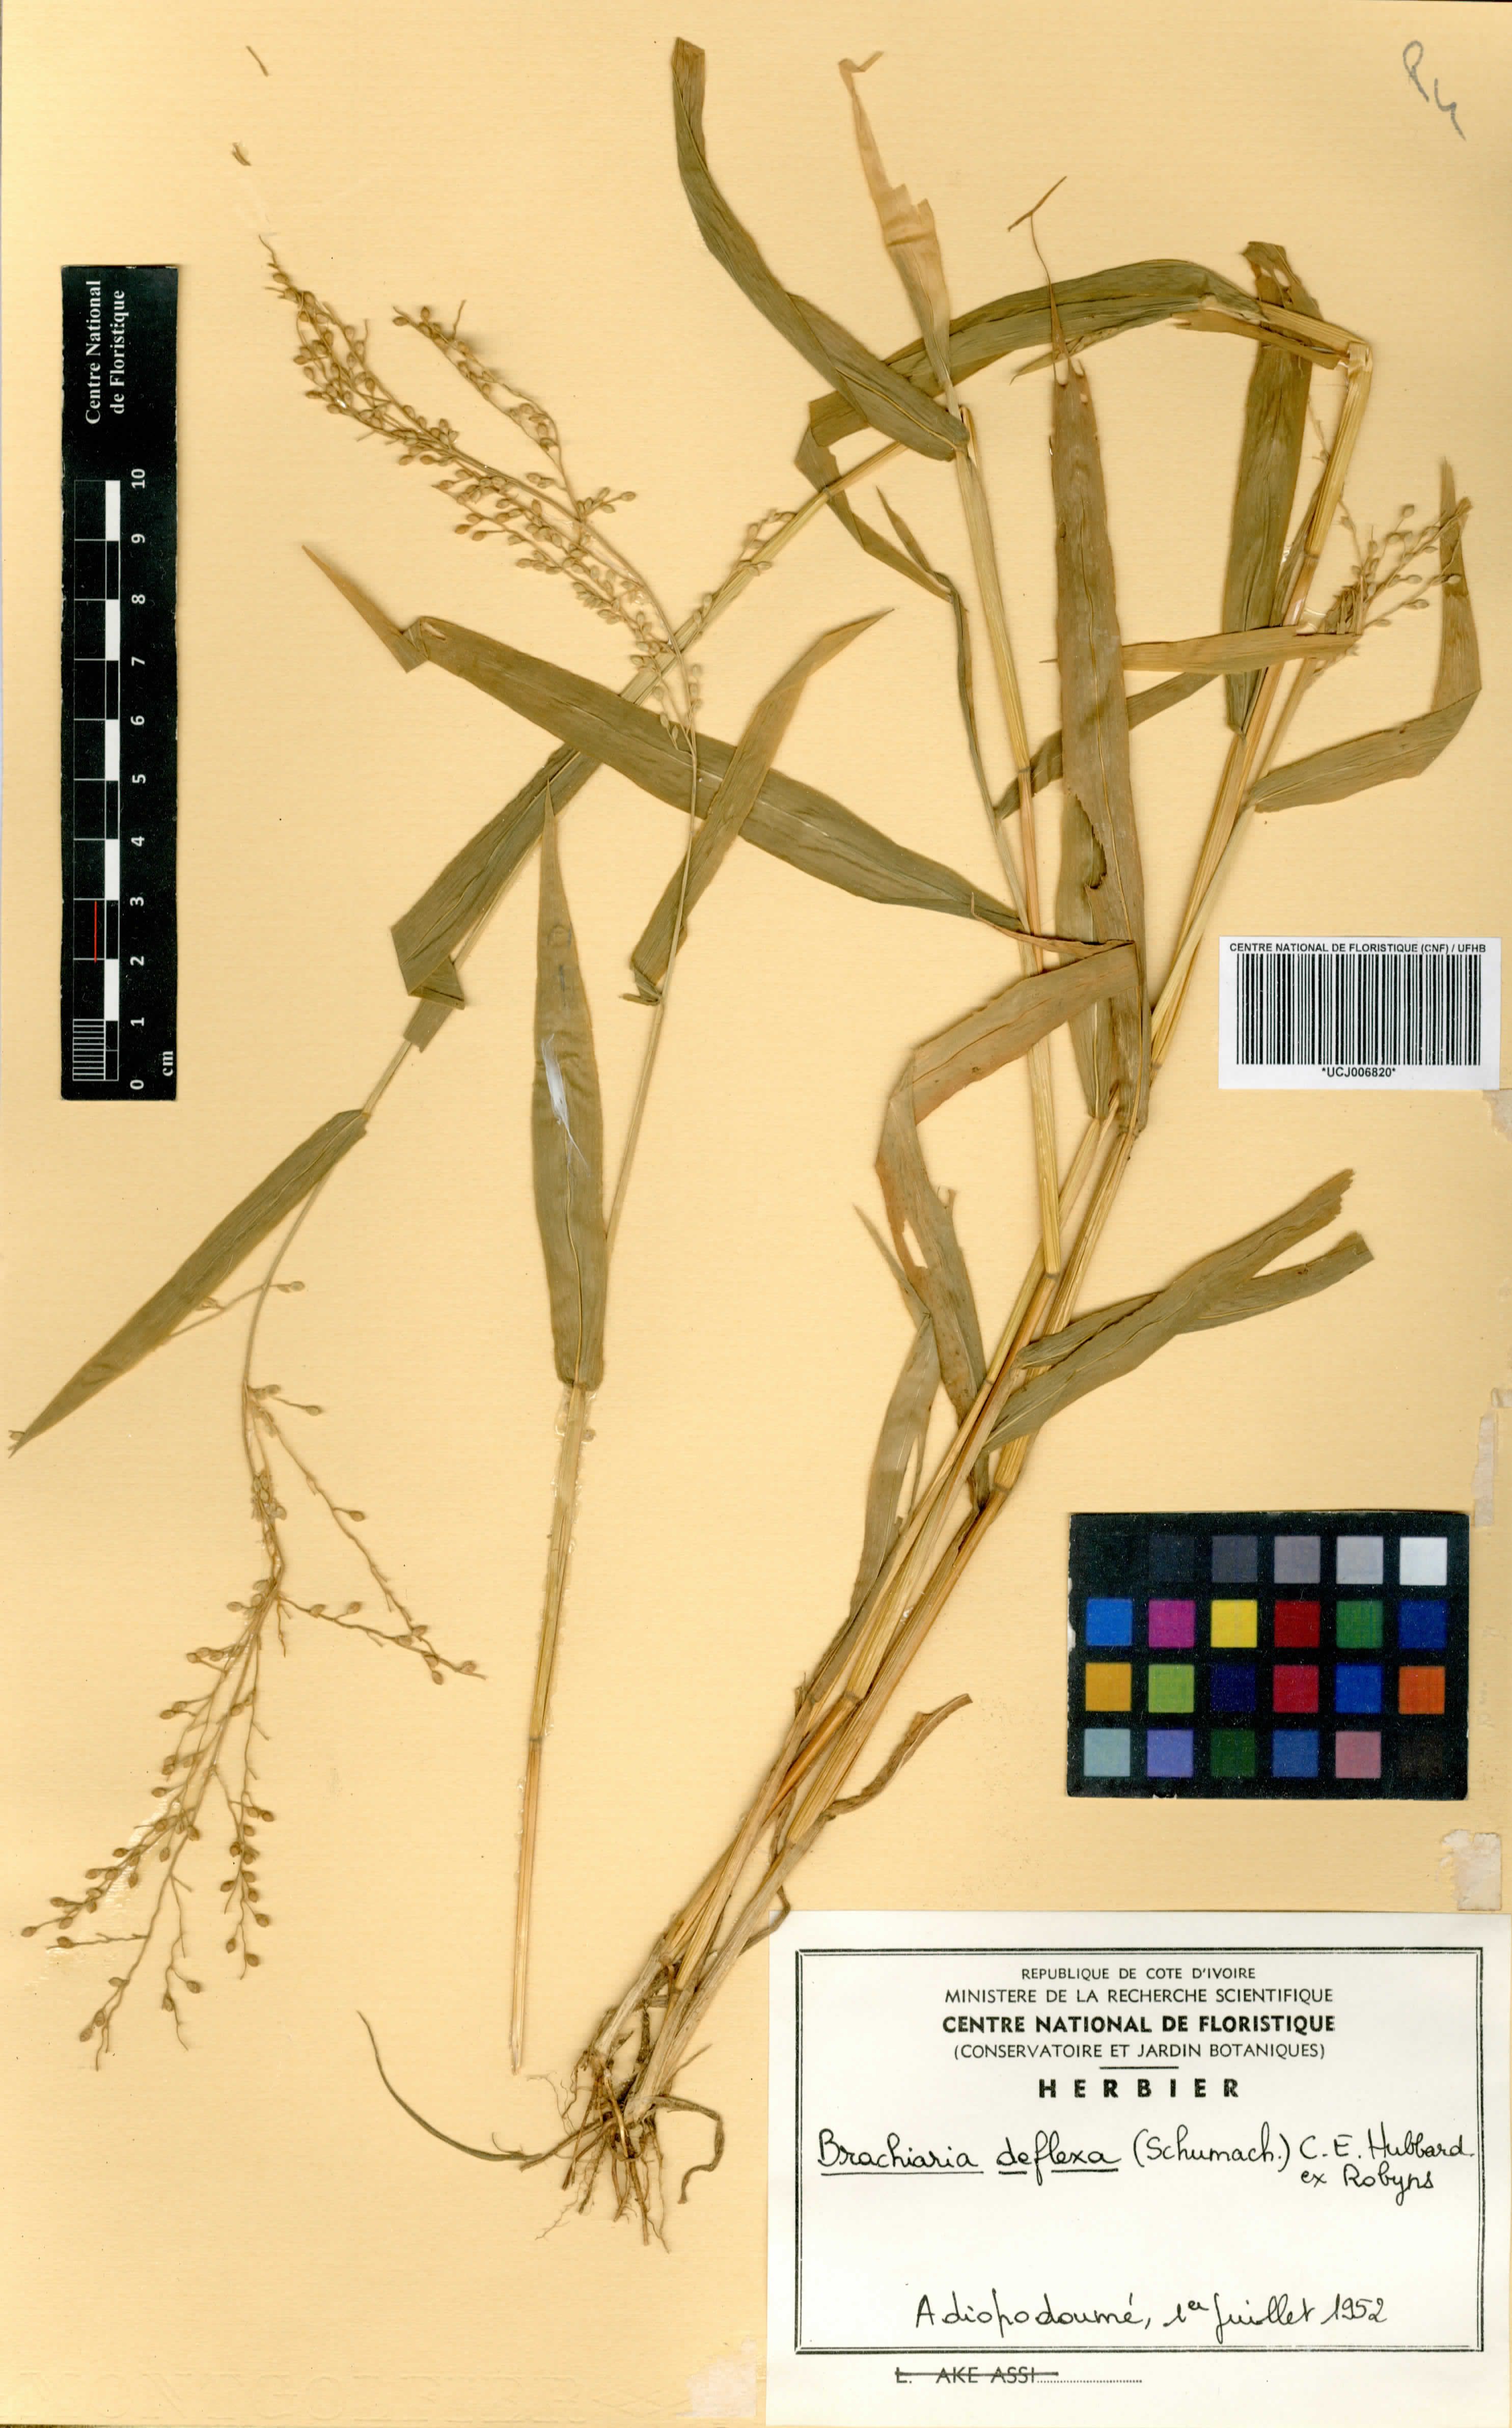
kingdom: Plantae
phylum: Tracheophyta
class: Liliopsida
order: Poales
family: Poaceae
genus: Urochloa
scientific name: Urochloa deflexa
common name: Guinea millet
